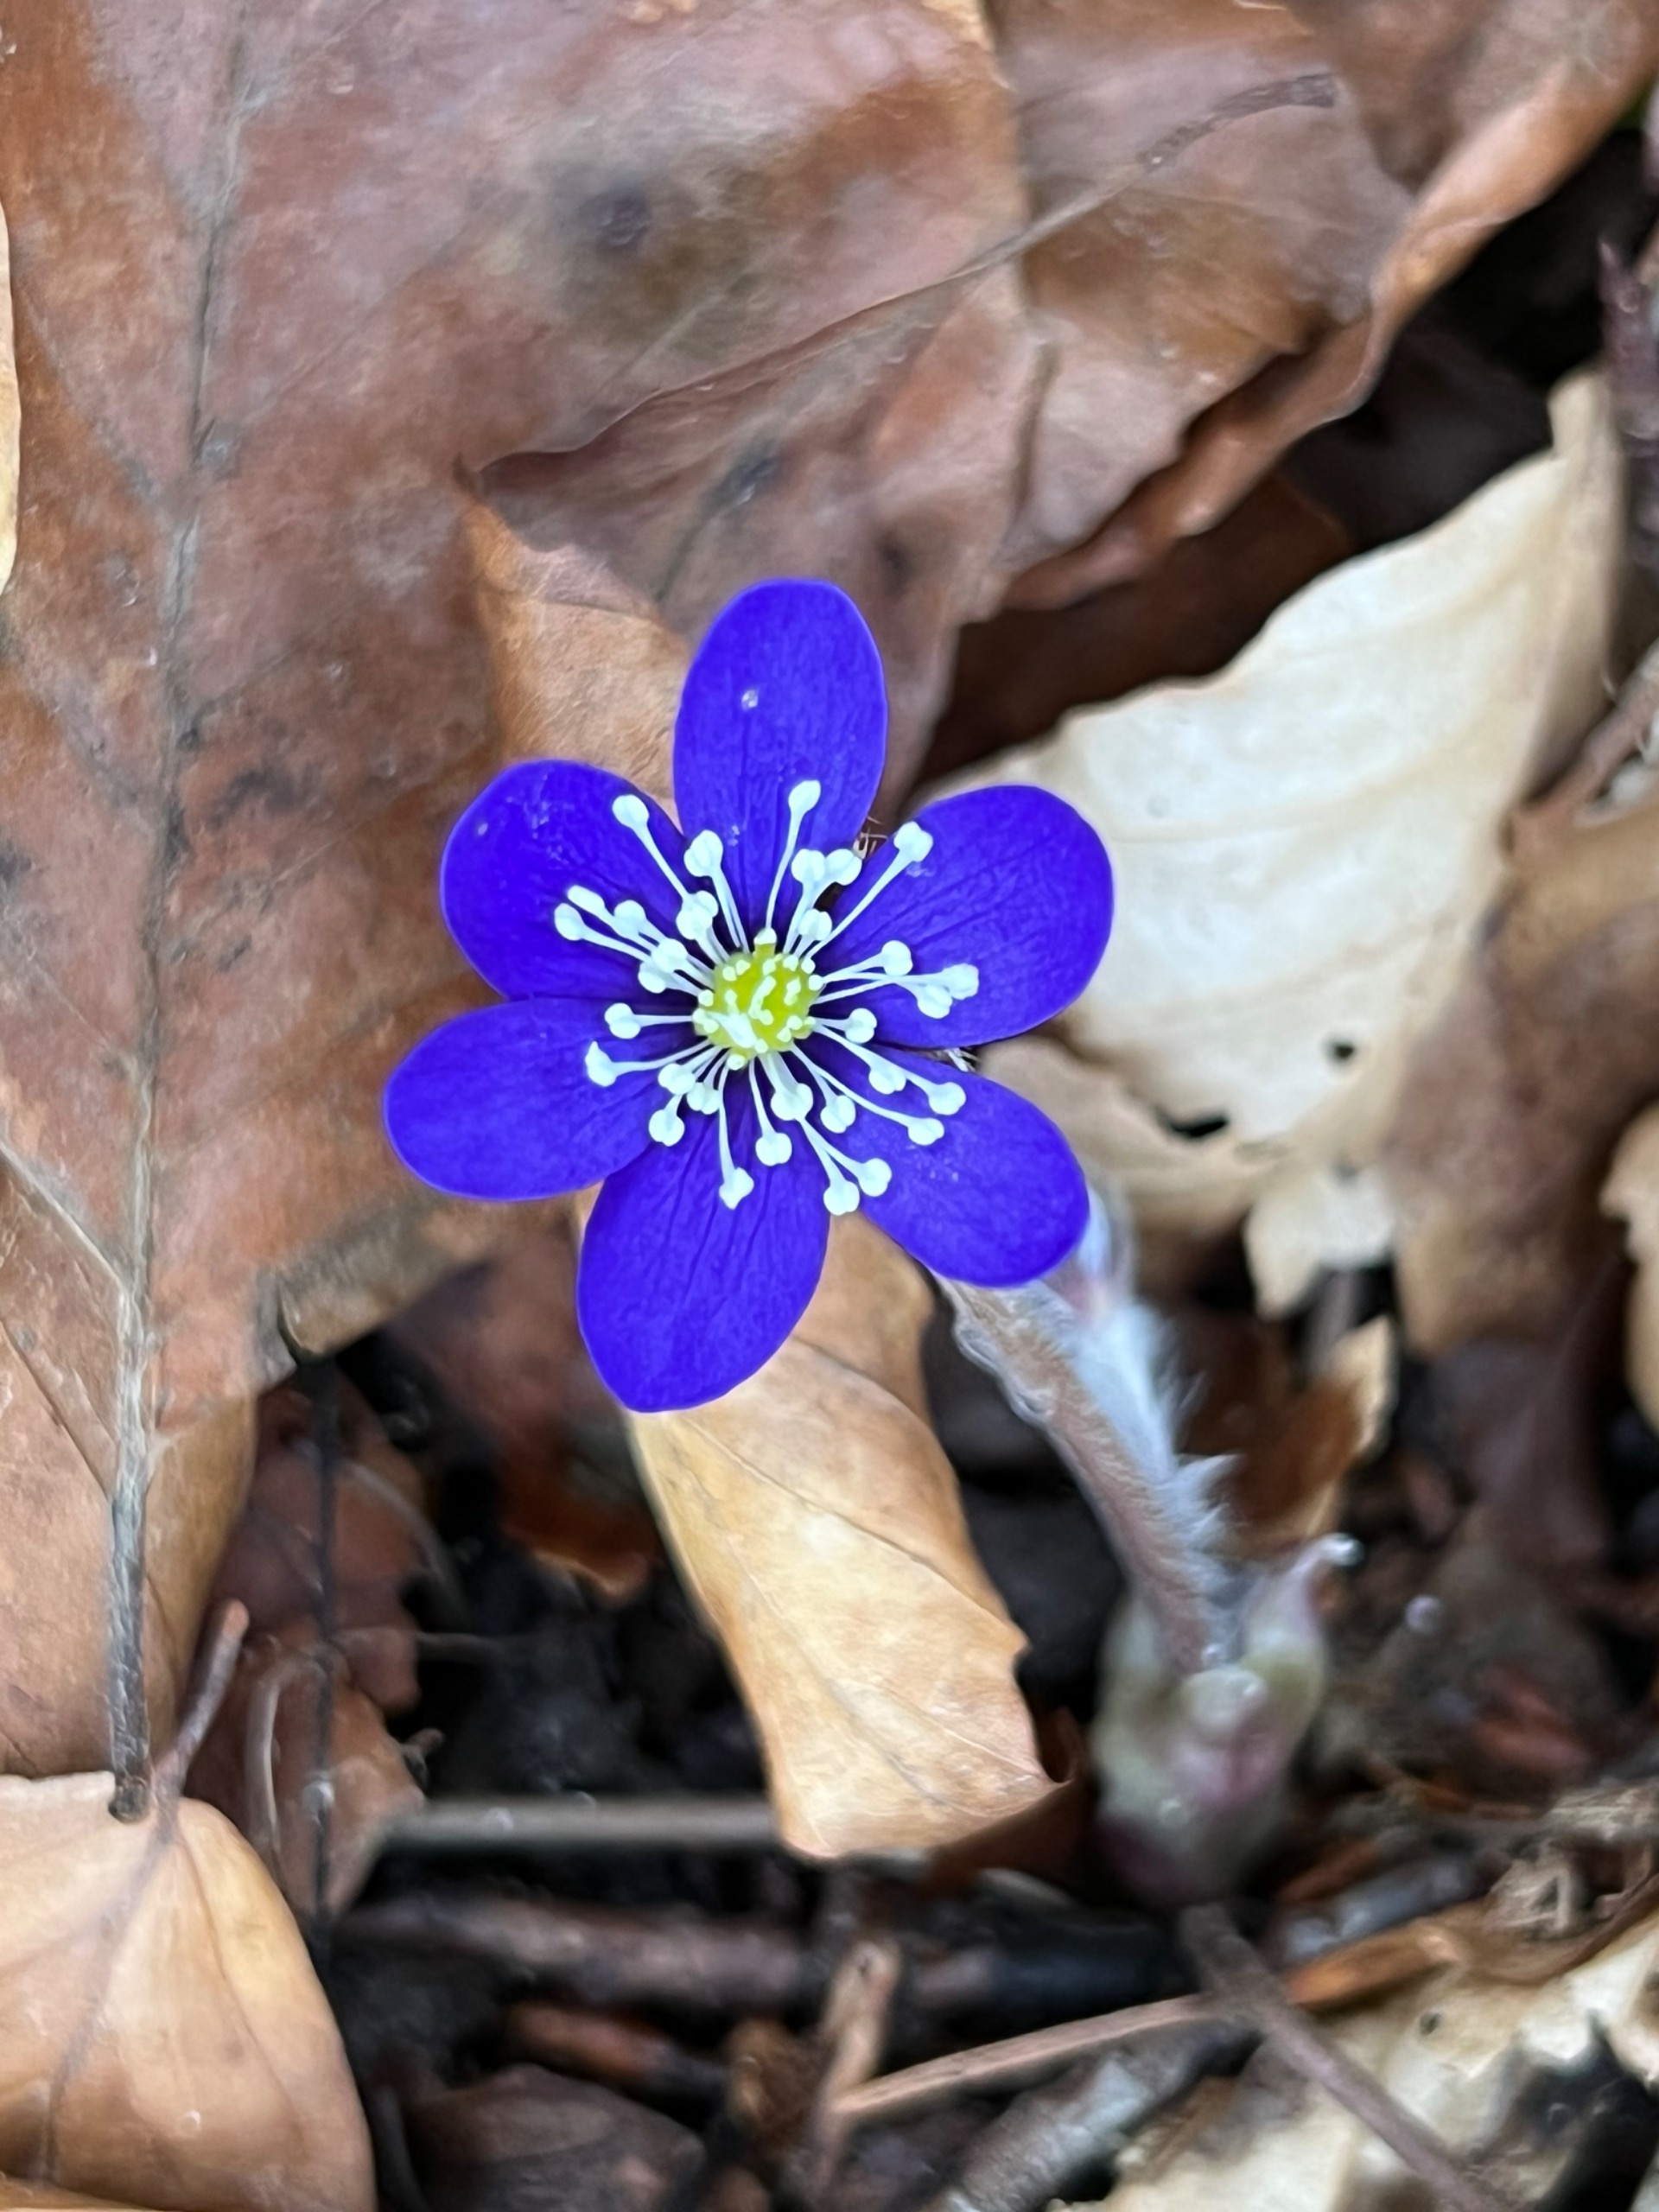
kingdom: Plantae
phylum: Tracheophyta
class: Magnoliopsida
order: Ranunculales
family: Ranunculaceae
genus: Hepatica
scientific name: Hepatica nobilis
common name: Blå anemone
